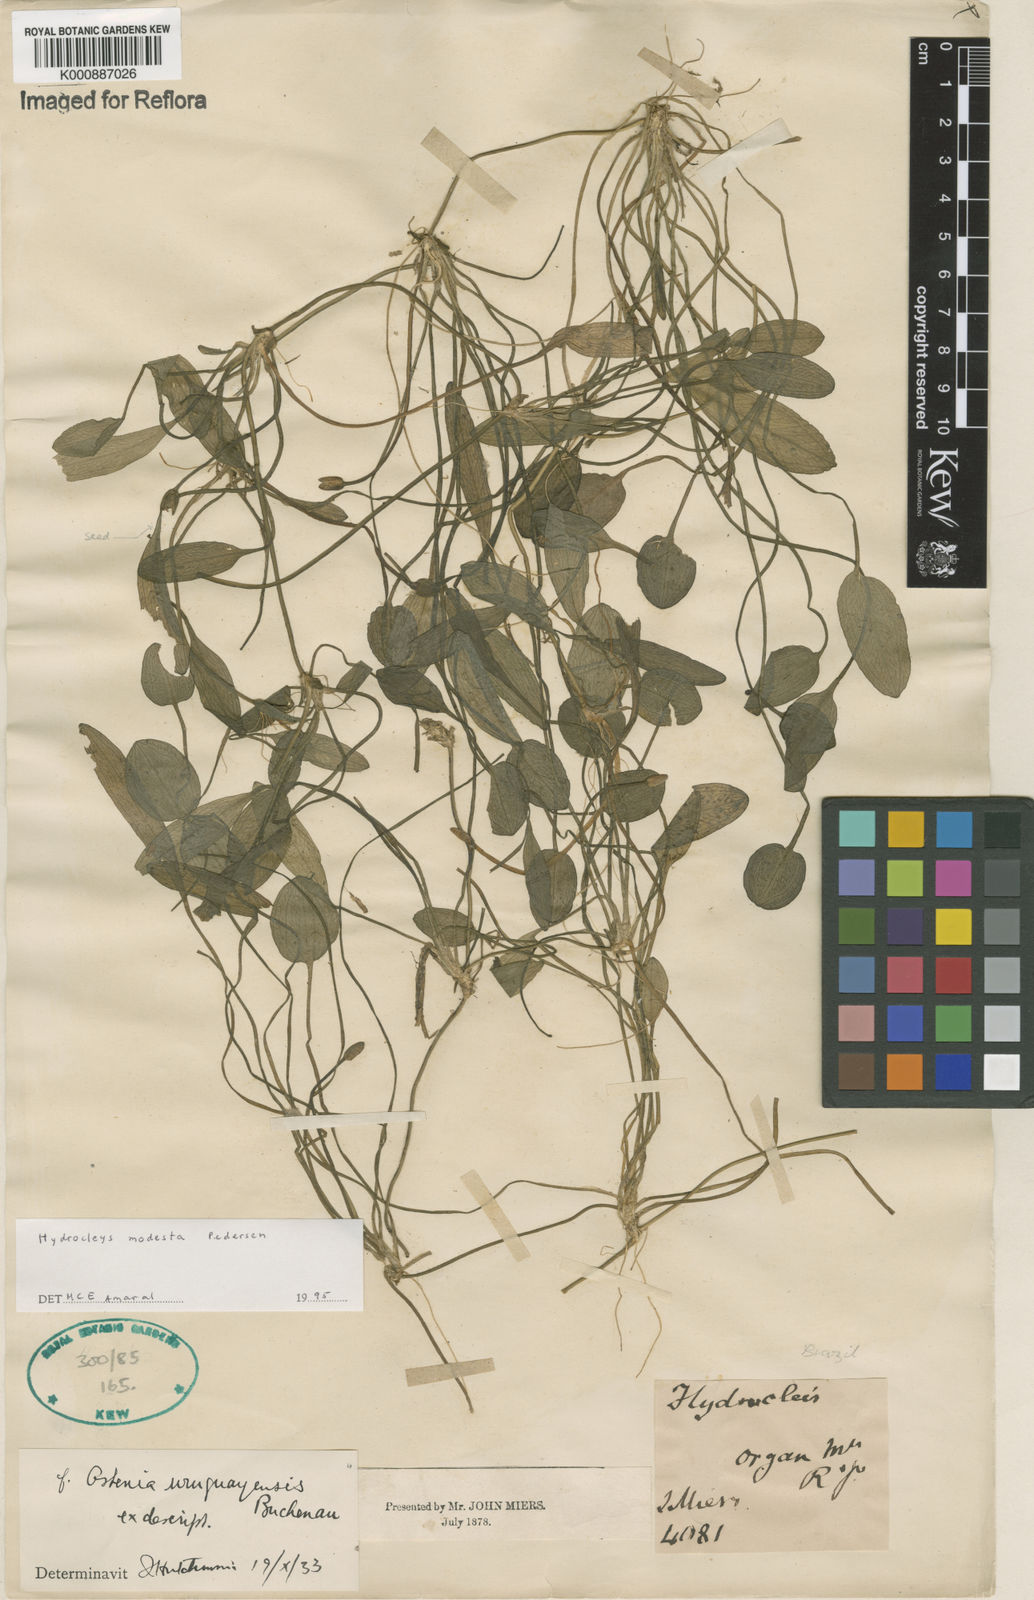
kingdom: Plantae
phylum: Tracheophyta
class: Liliopsida
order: Alismatales
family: Alismataceae
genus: Hydrocleys
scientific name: Hydrocleys modesta
